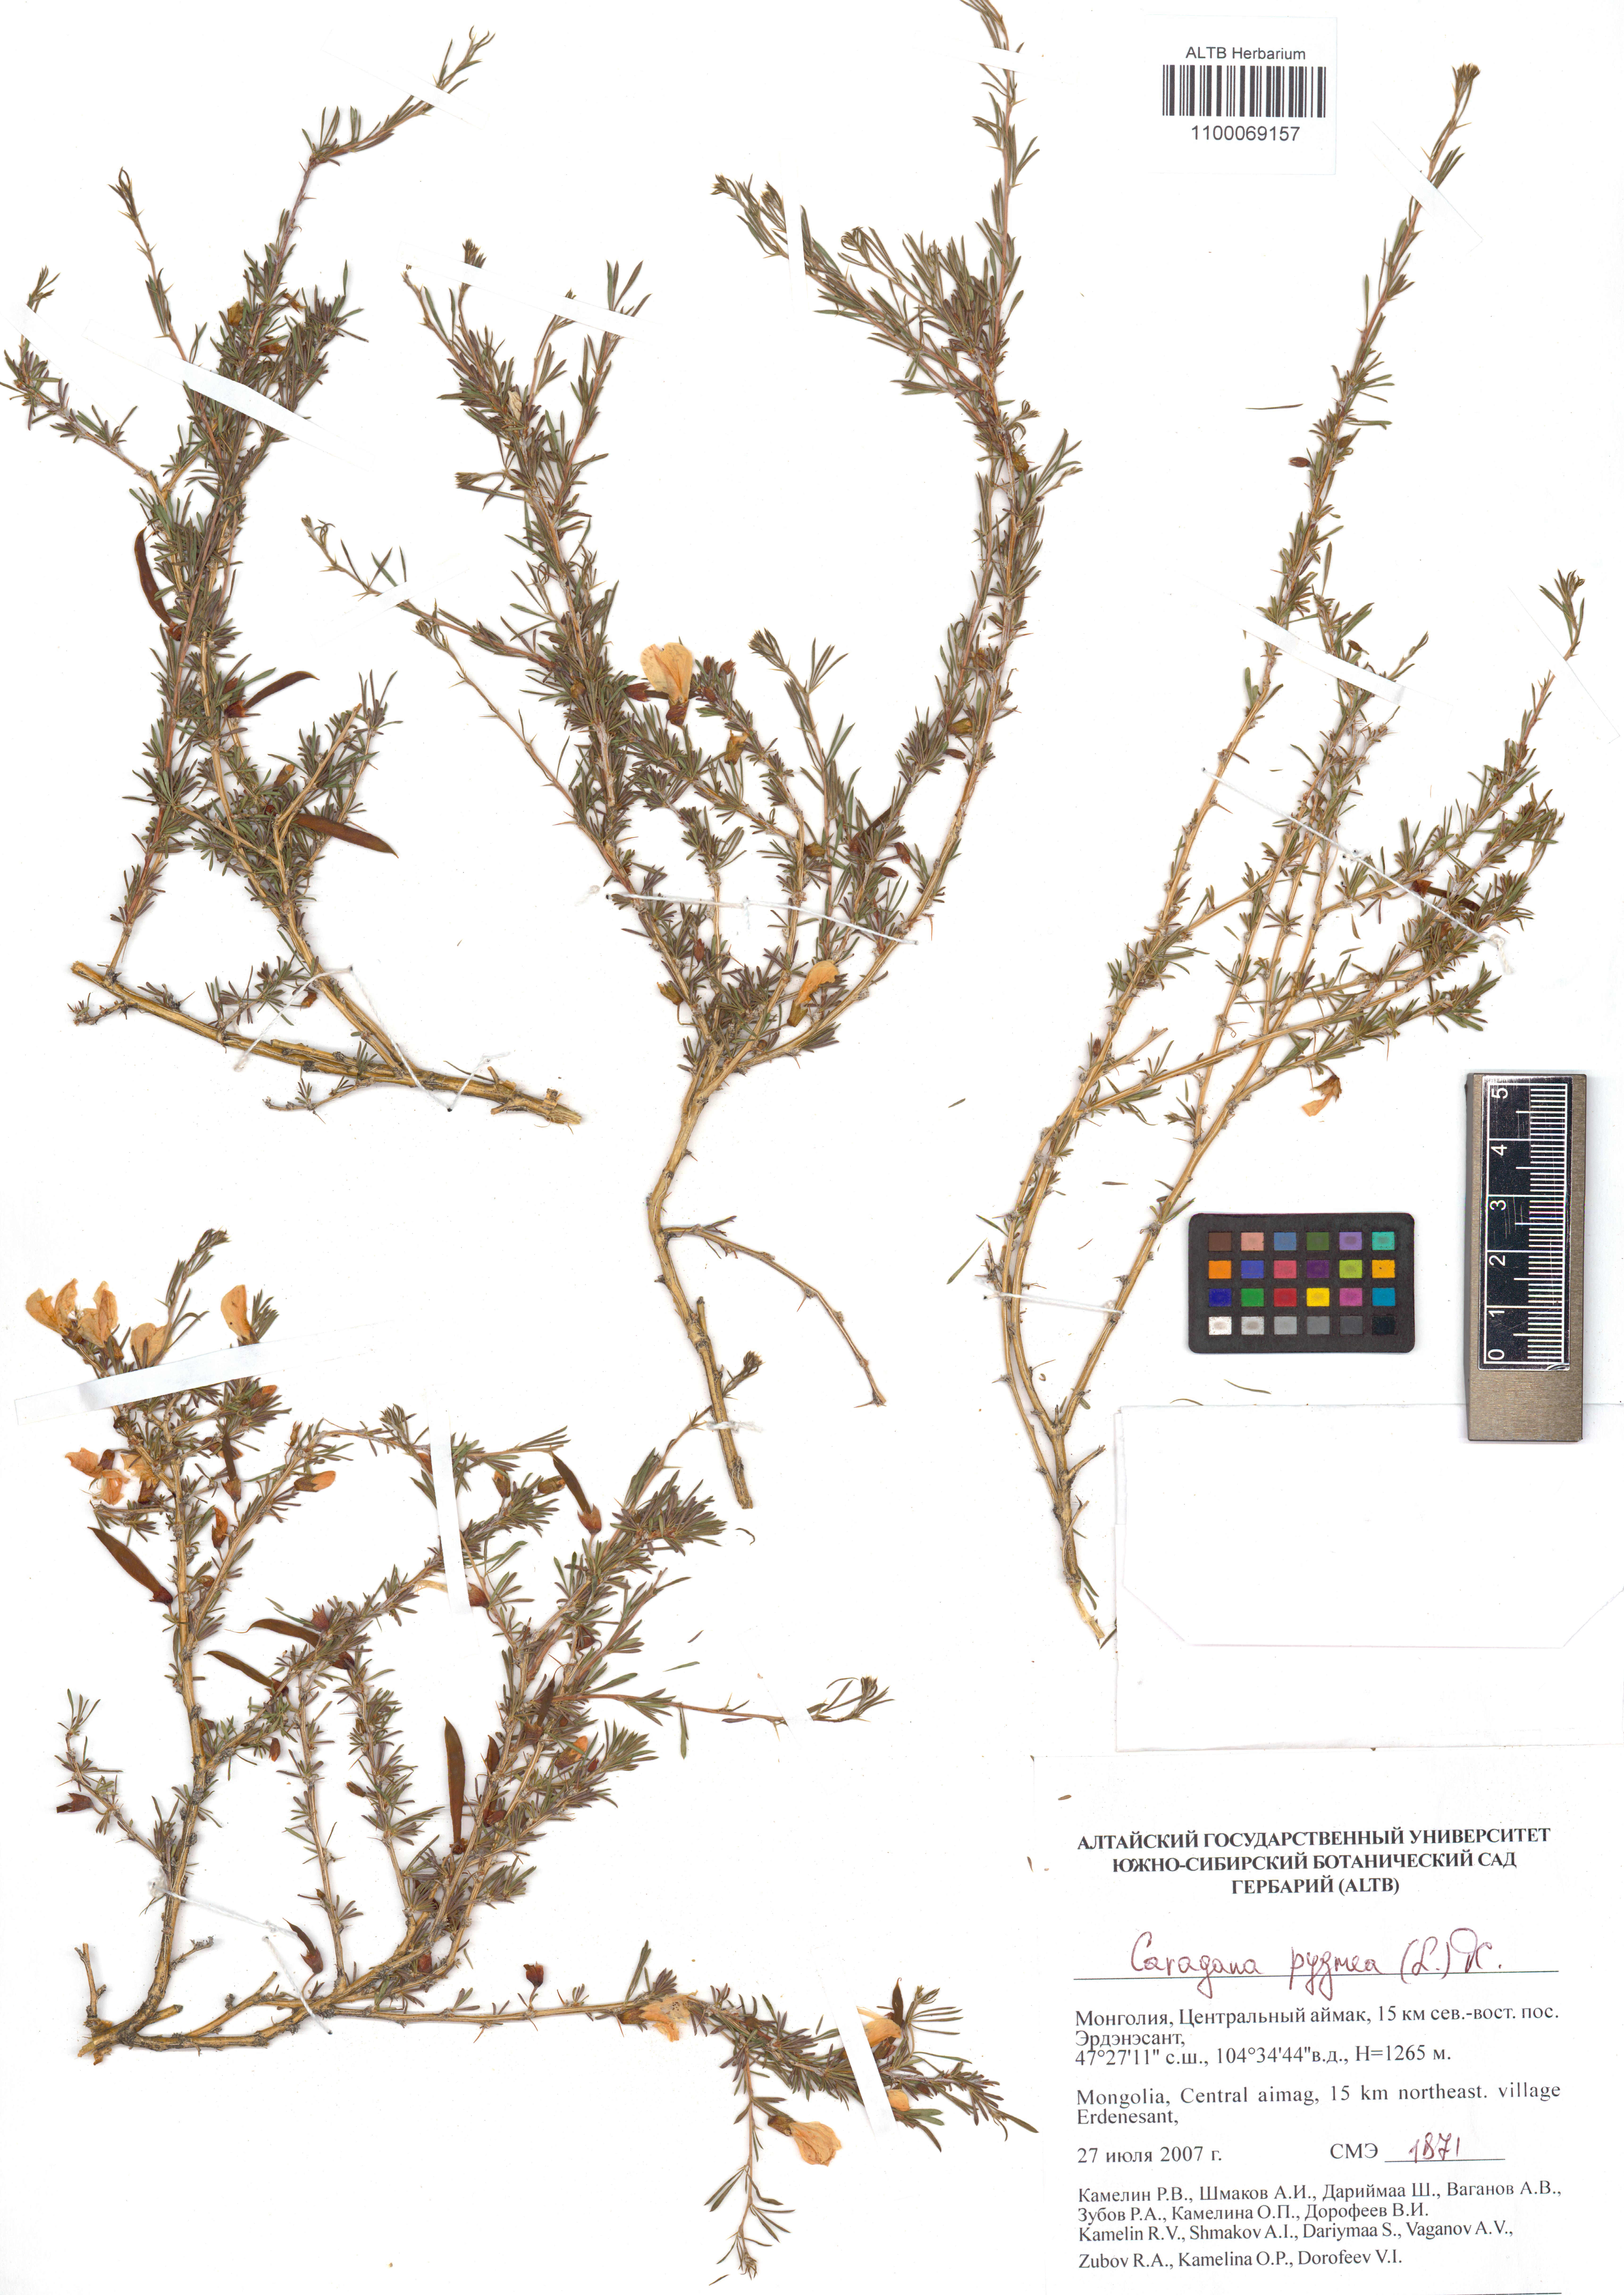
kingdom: Plantae
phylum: Tracheophyta
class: Magnoliopsida
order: Fabales
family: Fabaceae
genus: Caragana
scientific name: Caragana pygmaea
